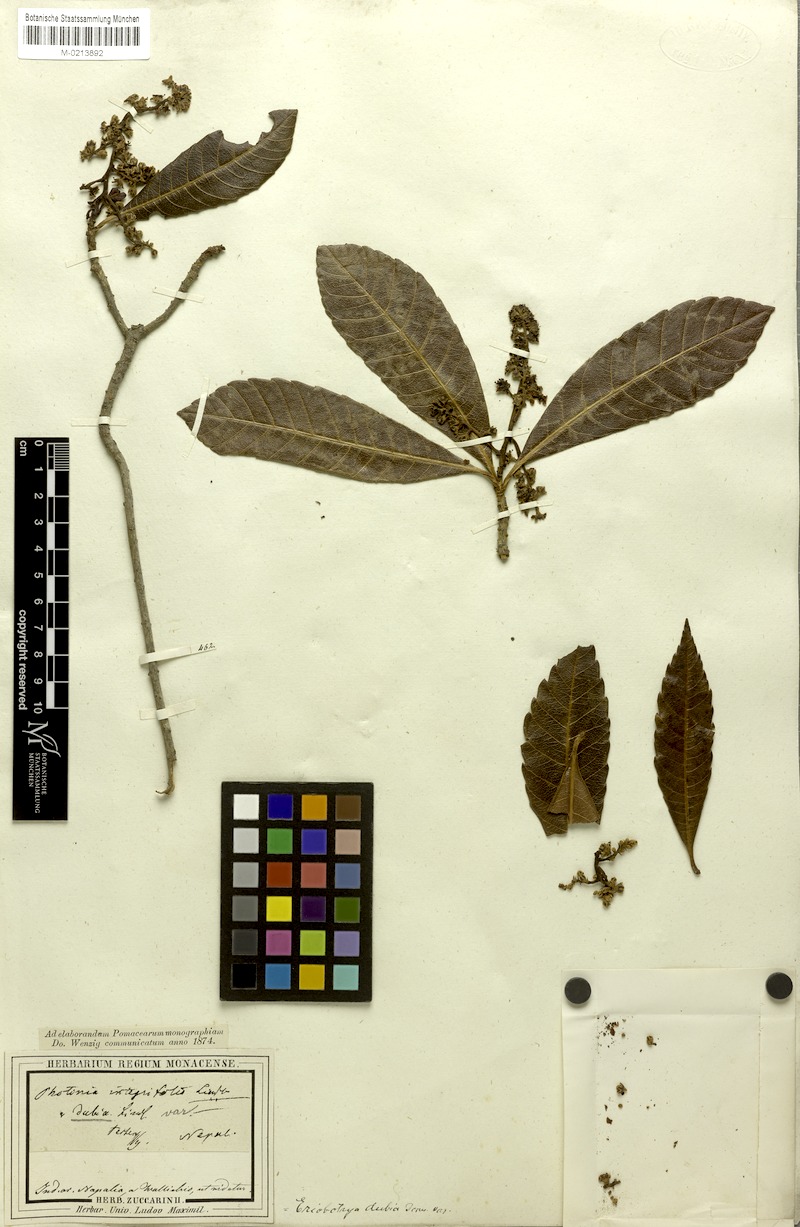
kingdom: Plantae
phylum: Tracheophyta
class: Magnoliopsida
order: Rosales
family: Rosaceae
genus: Rhaphiolepis
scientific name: Rhaphiolepis dubia
